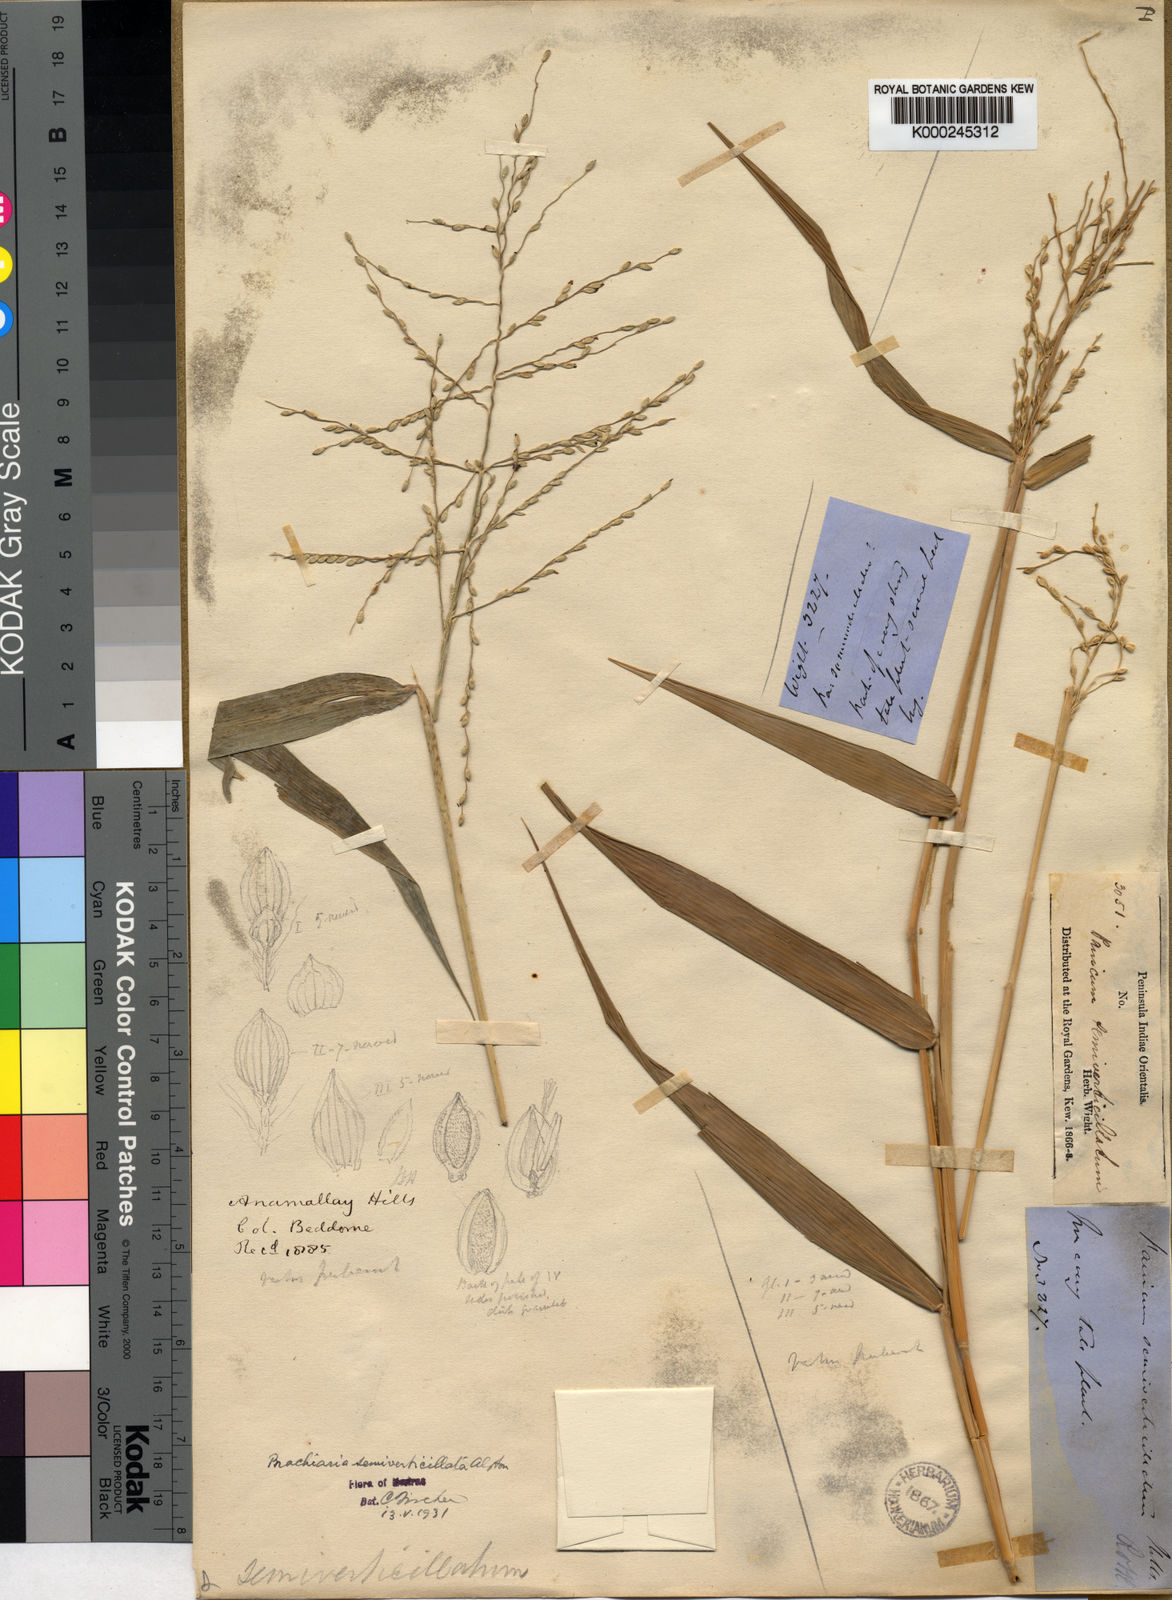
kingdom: Plantae
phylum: Tracheophyta
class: Liliopsida
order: Poales
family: Poaceae
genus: Urochloa
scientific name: Urochloa Brachiaria semiverticillata
